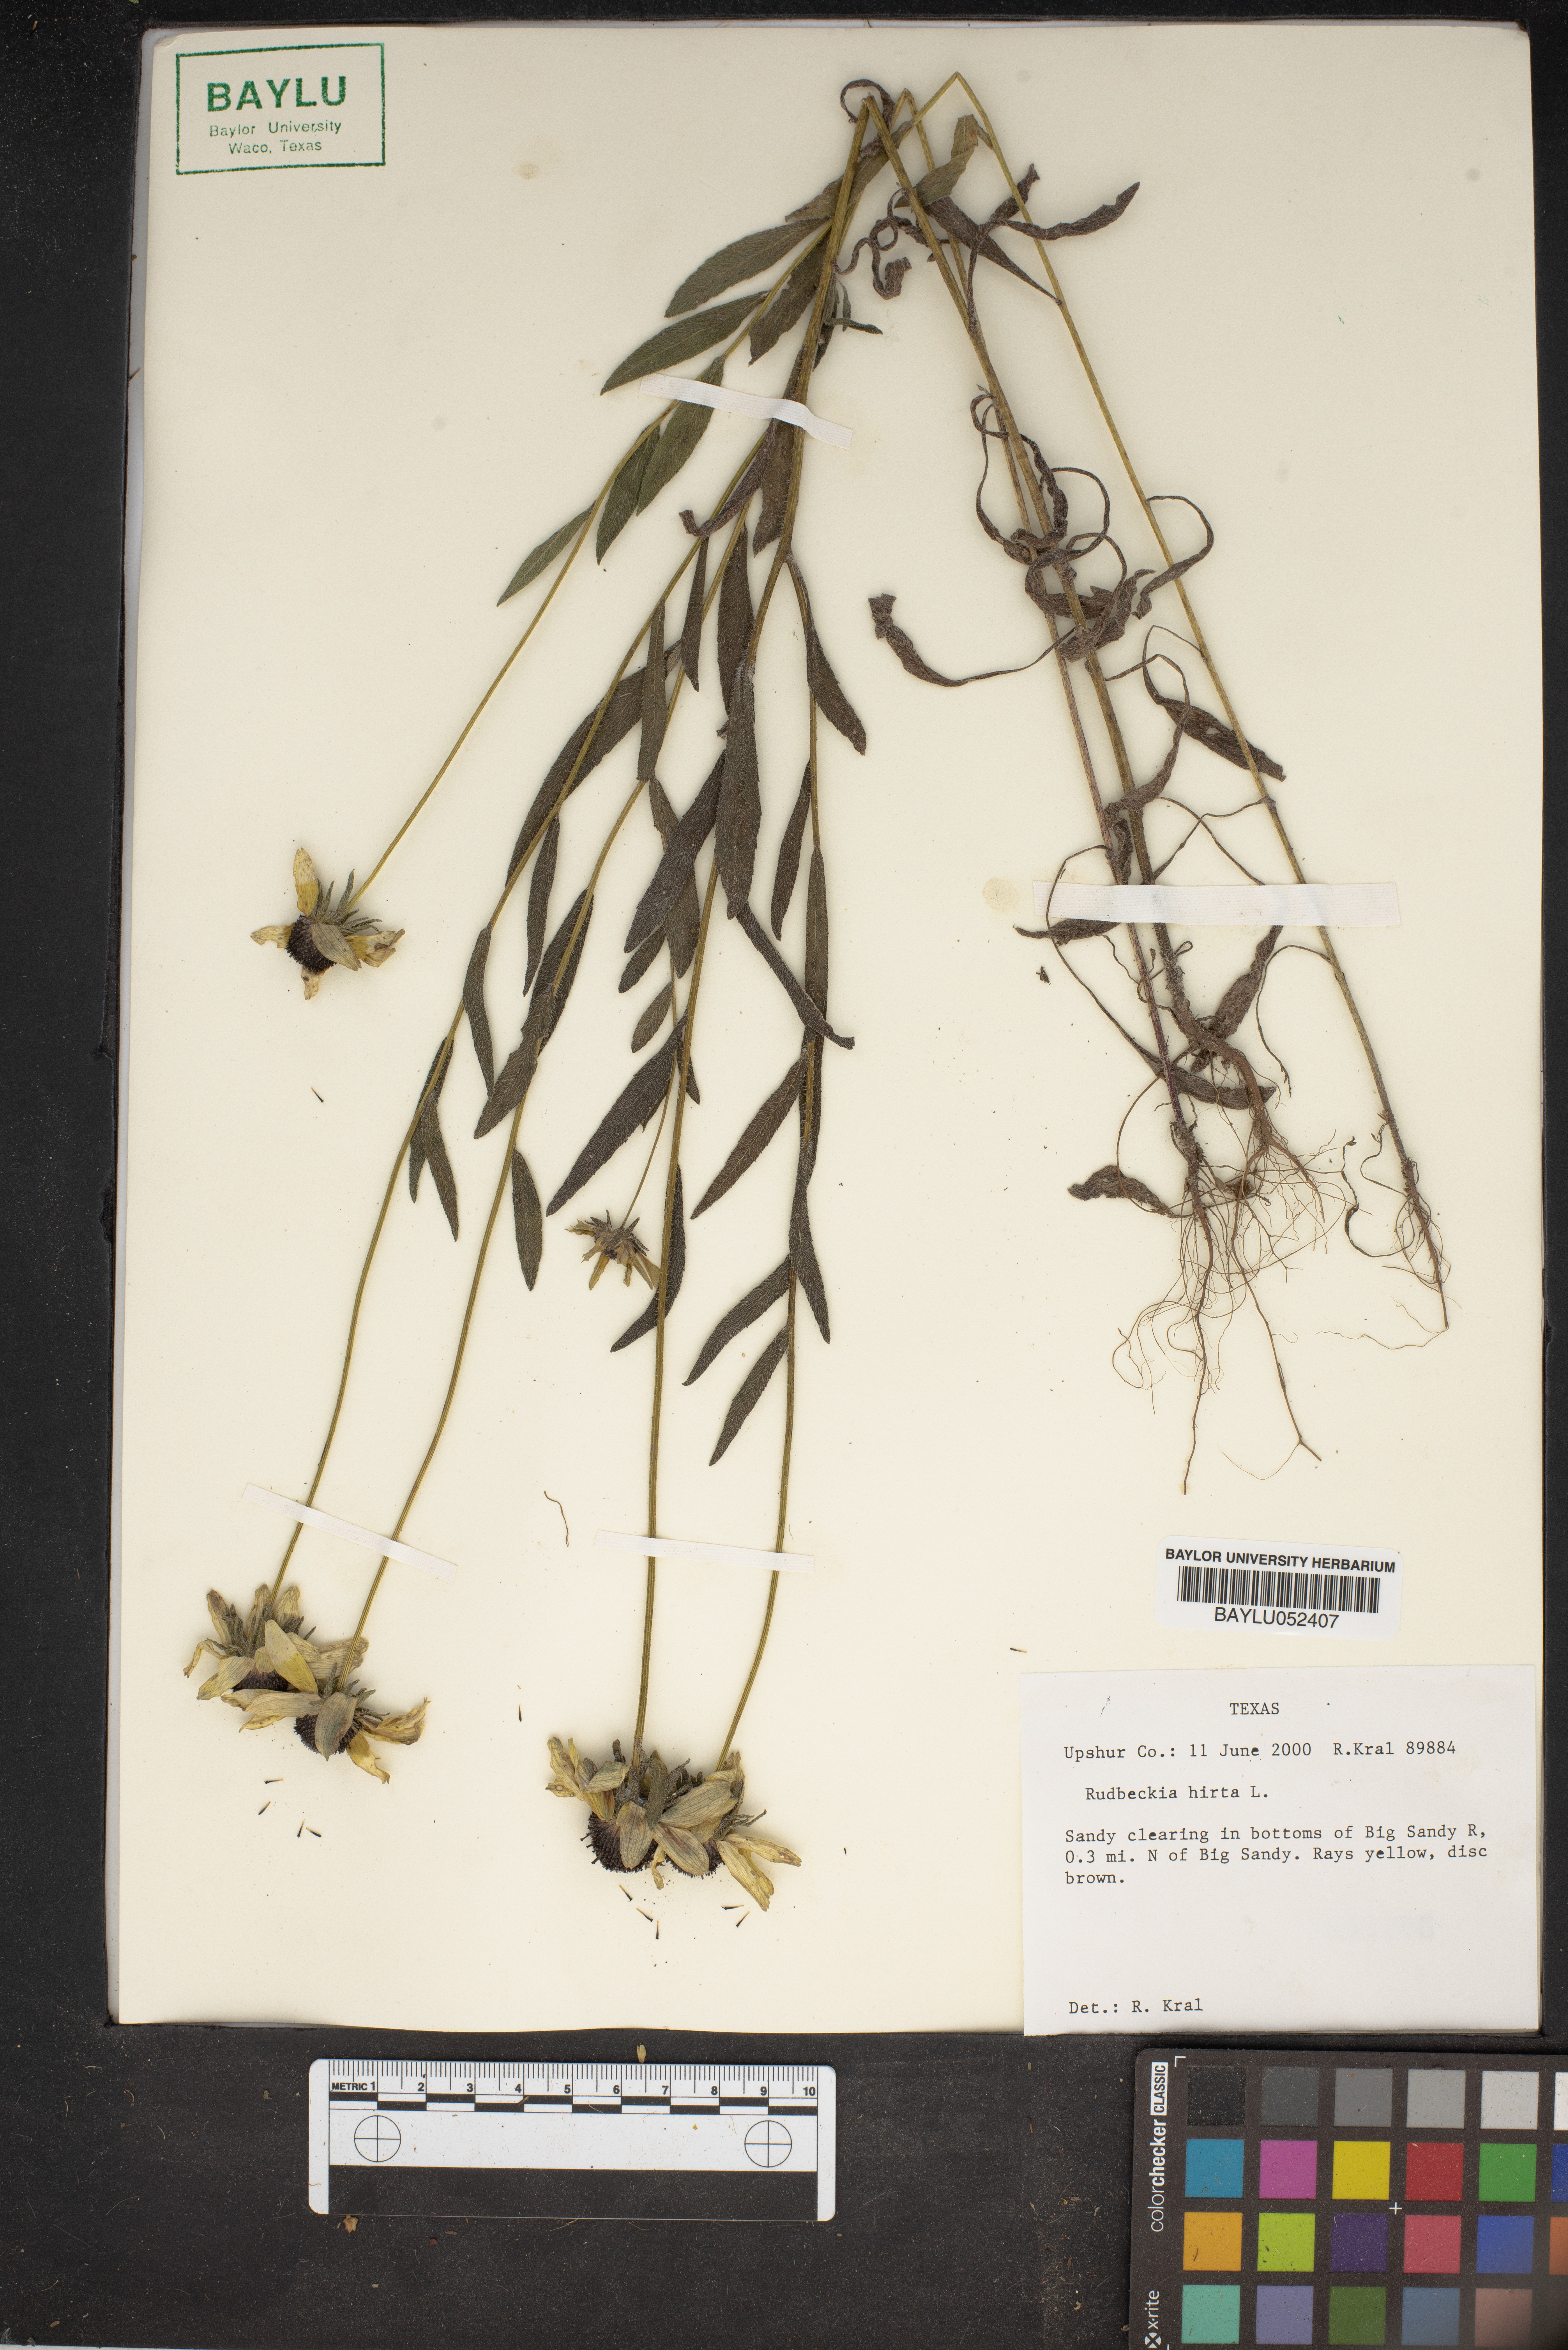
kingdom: Plantae
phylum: Tracheophyta
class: Magnoliopsida
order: Asterales
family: Asteraceae
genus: Rudbeckia
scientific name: Rudbeckia hirta
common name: Black-eyed-susan
